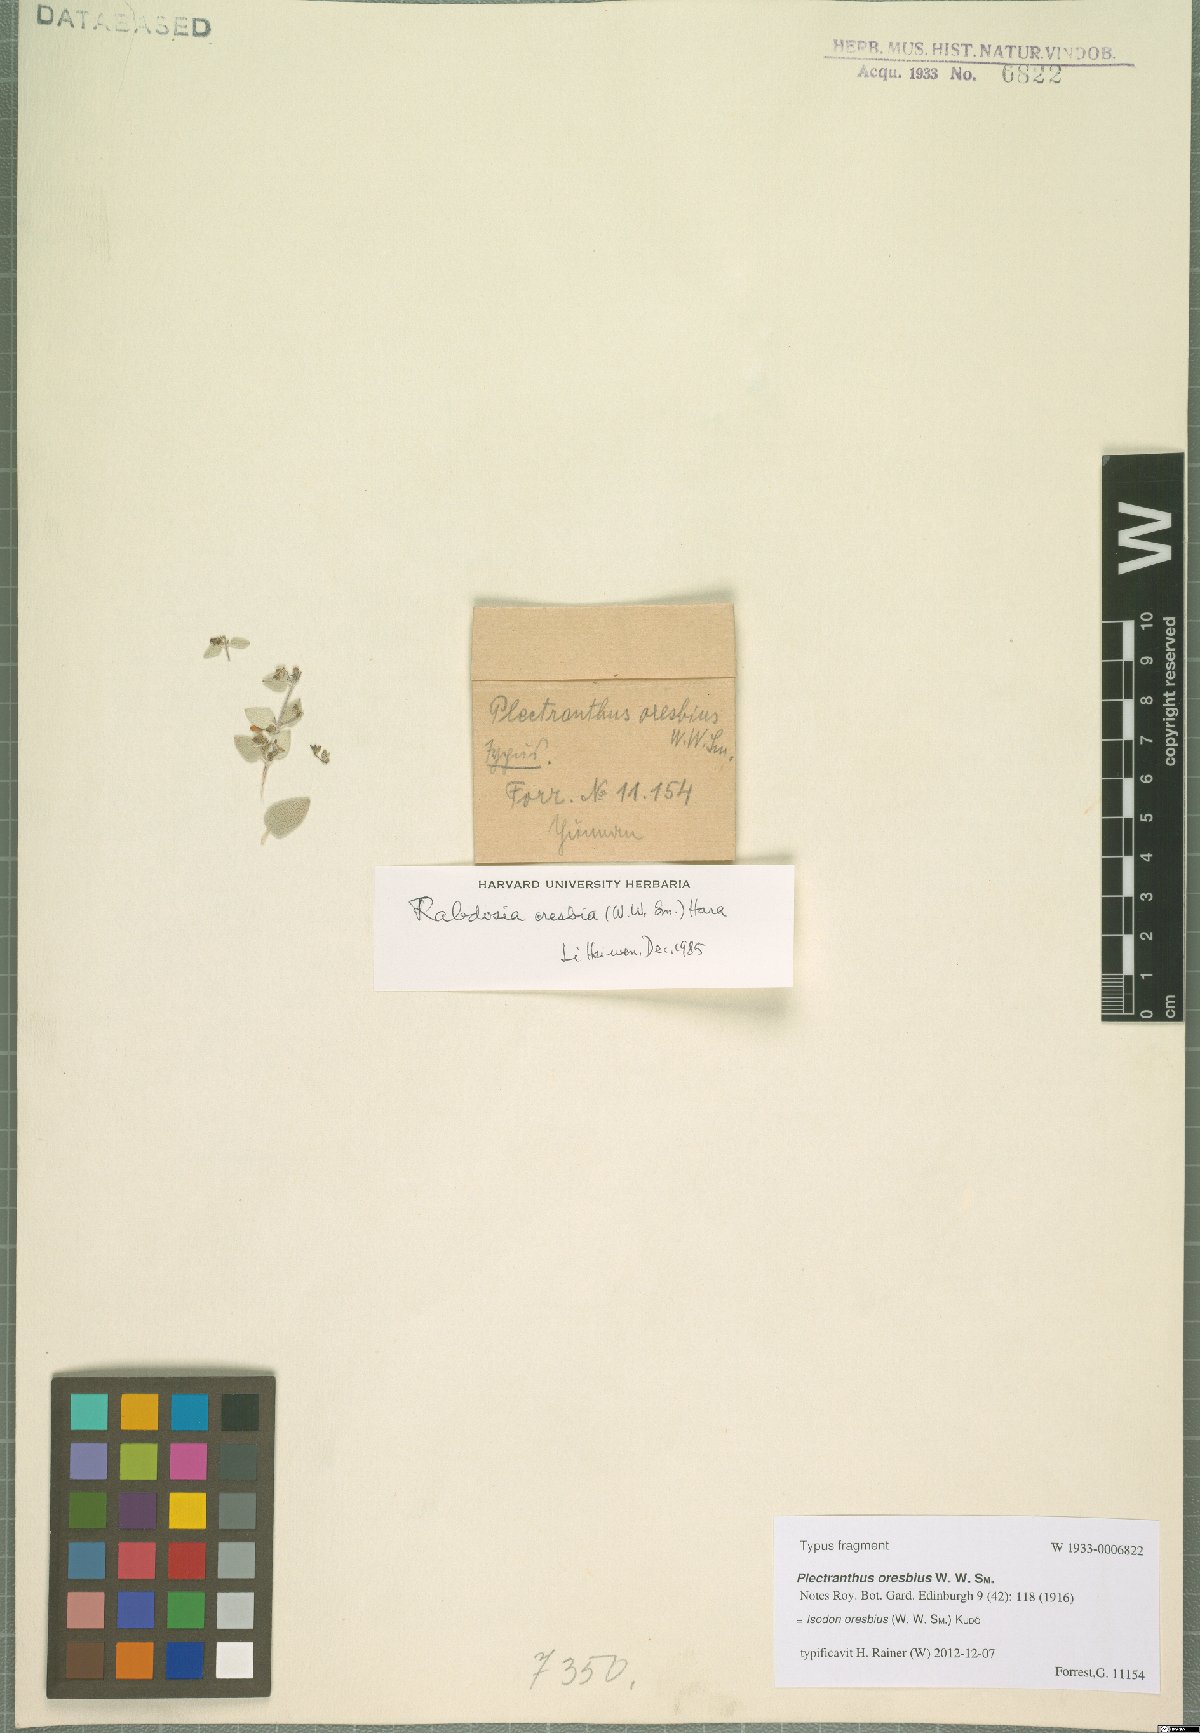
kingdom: Plantae
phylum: Tracheophyta
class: Magnoliopsida
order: Lamiales
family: Lamiaceae
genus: Isodon
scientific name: Isodon oresbius
